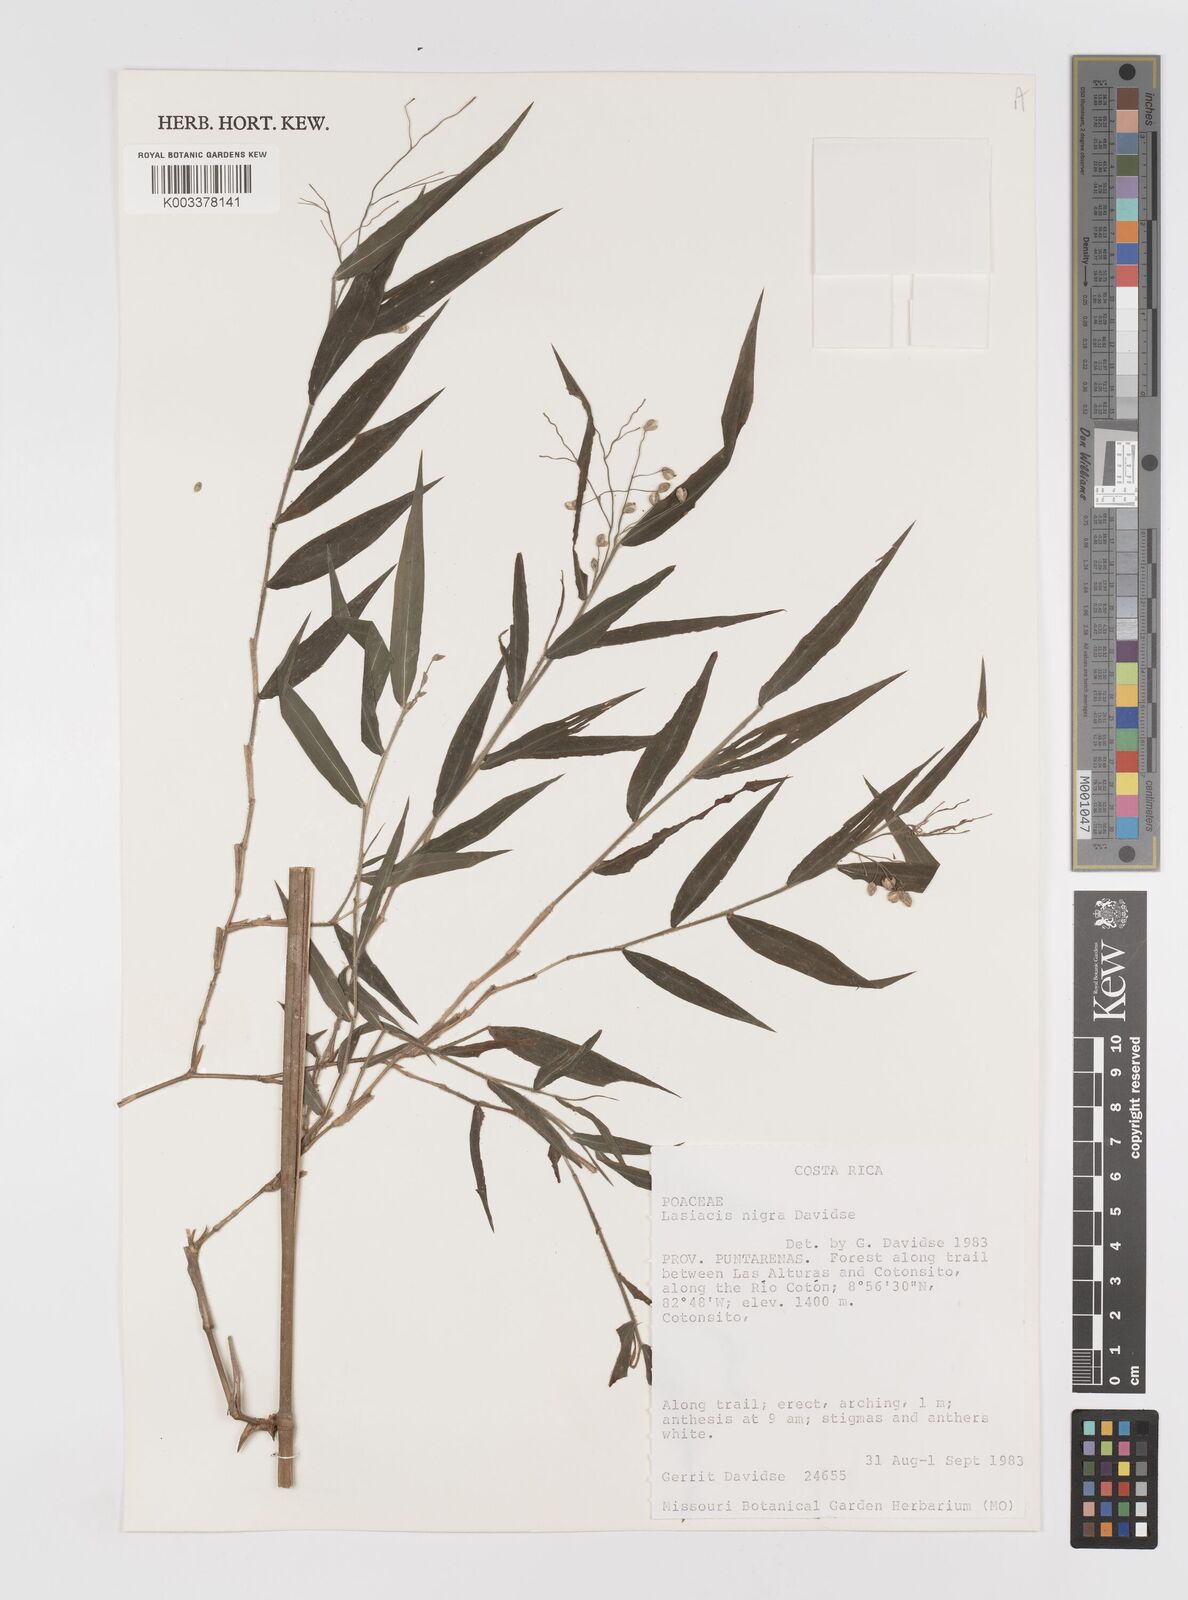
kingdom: Plantae
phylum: Tracheophyta
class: Liliopsida
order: Poales
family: Poaceae
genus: Lasiacis
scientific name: Lasiacis nigra
